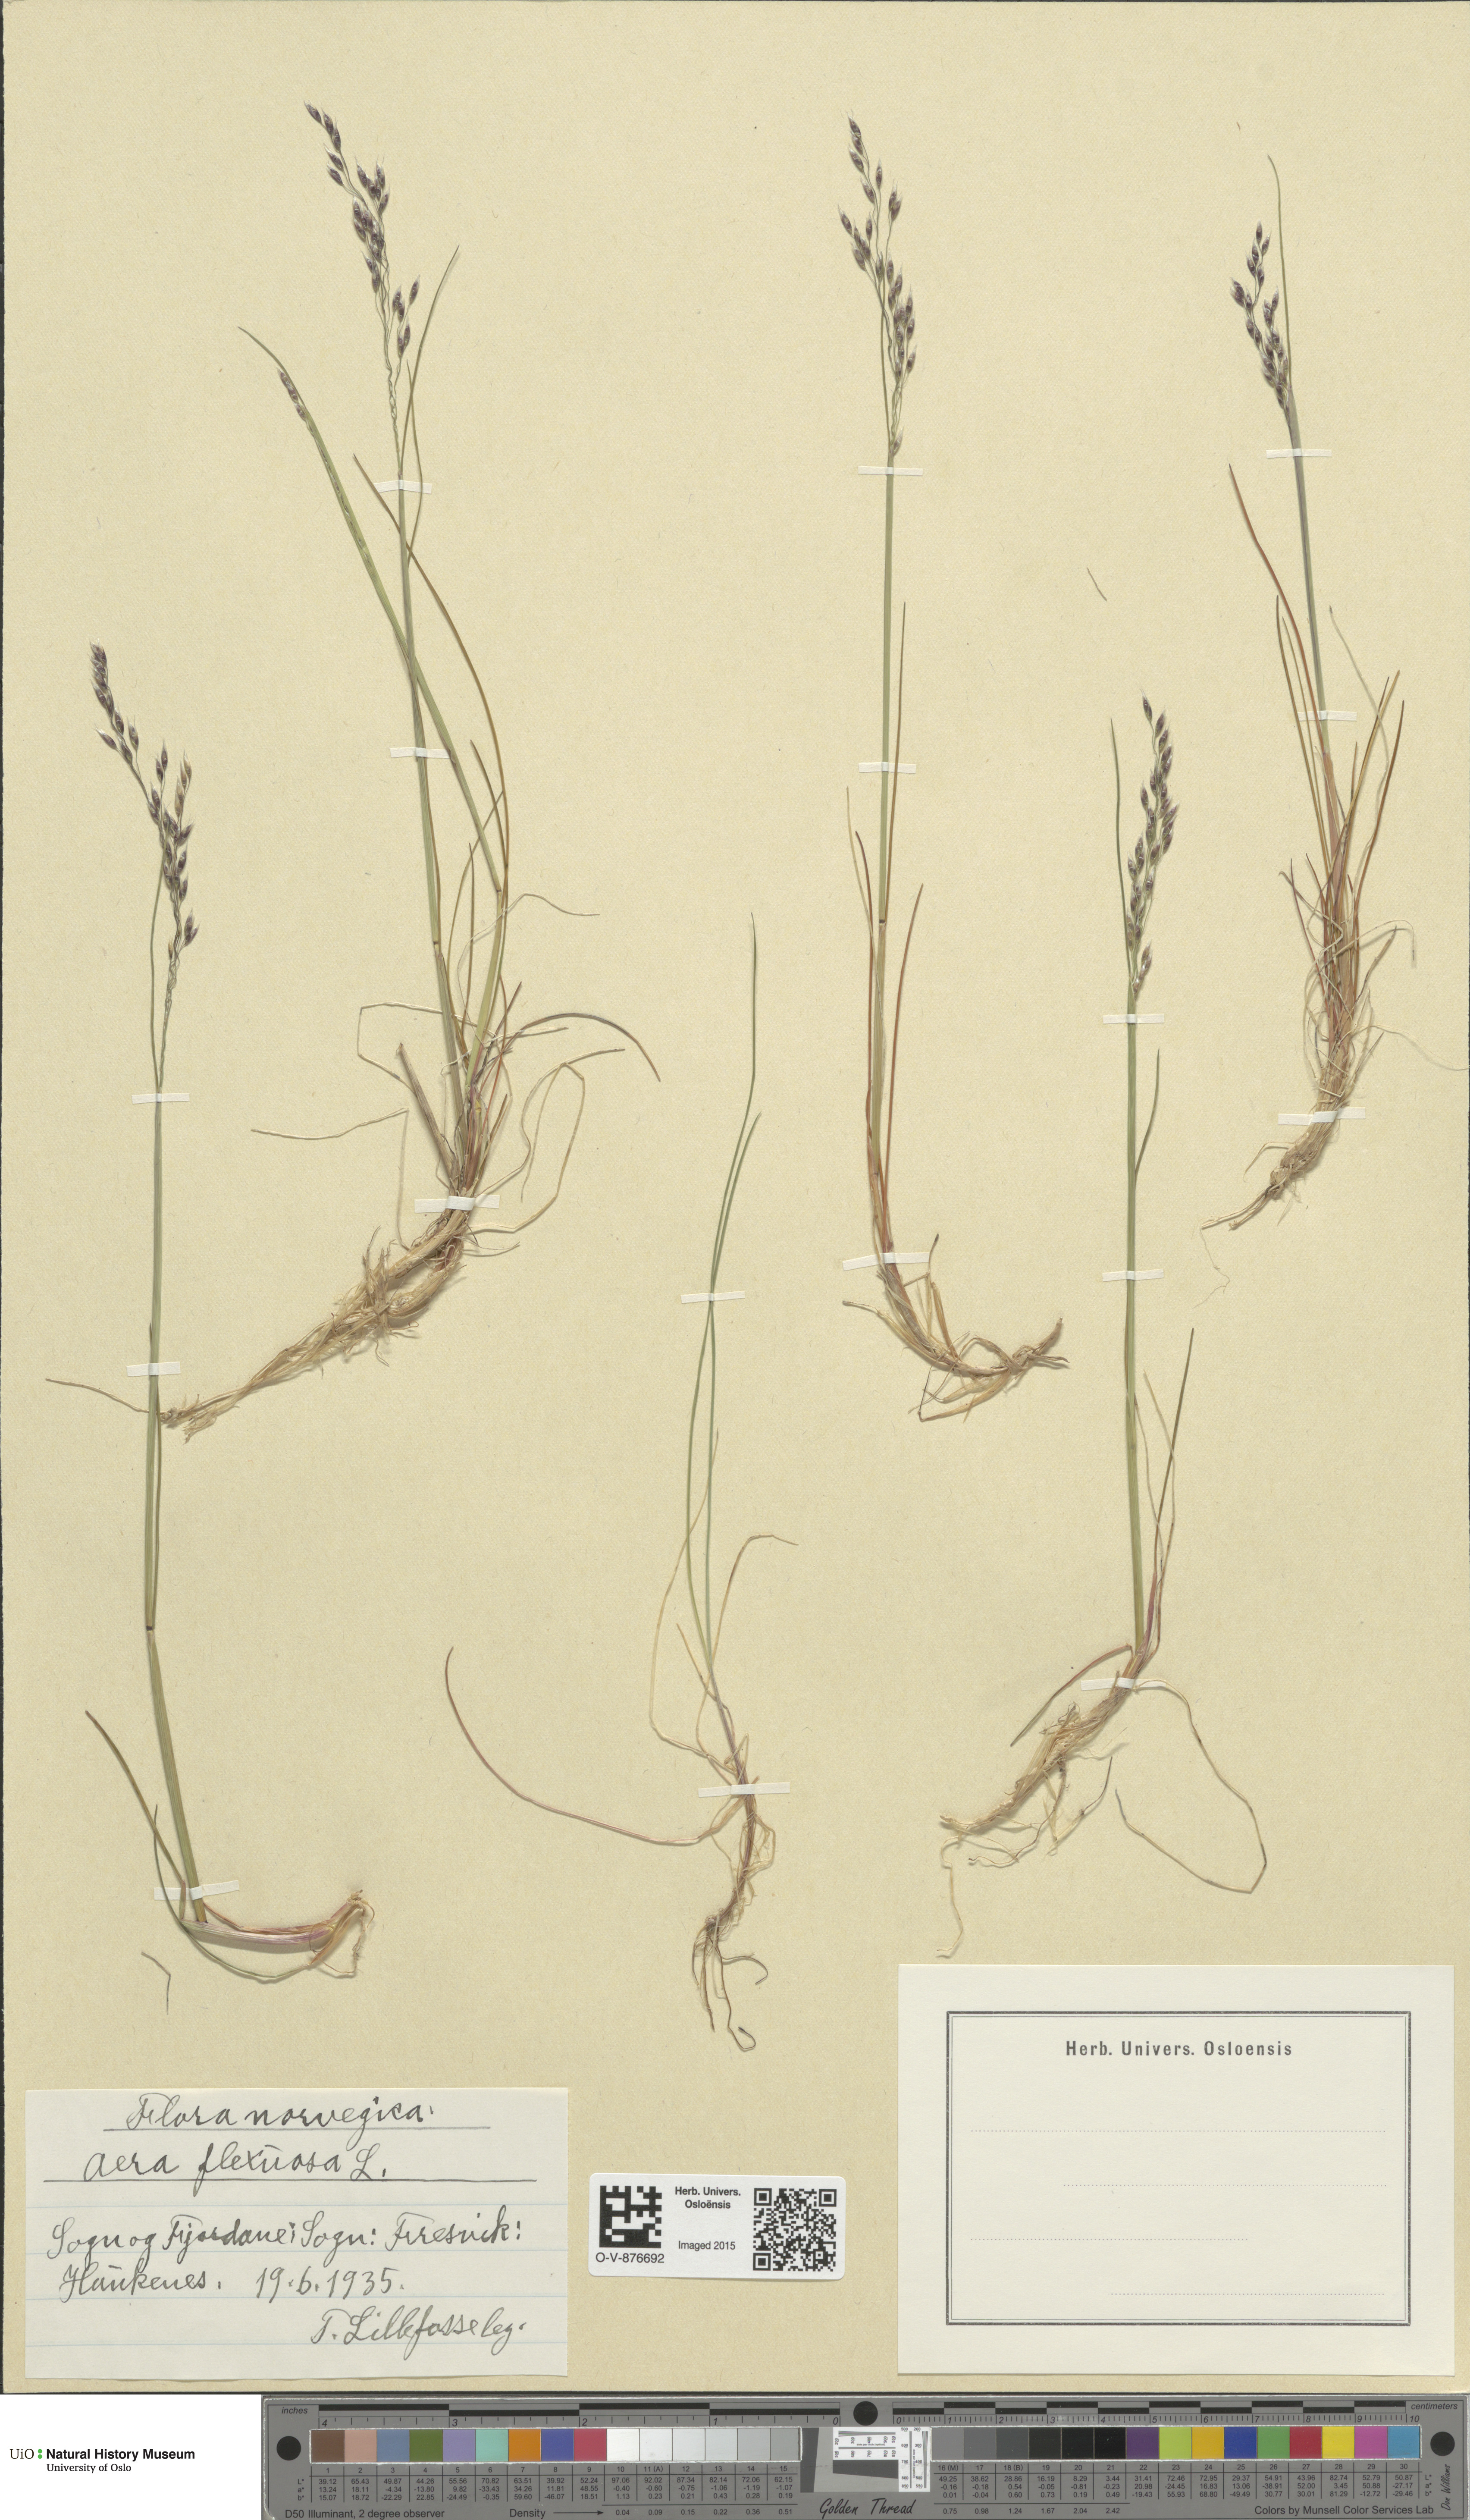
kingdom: Plantae
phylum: Tracheophyta
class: Liliopsida
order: Poales
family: Poaceae
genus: Avenella
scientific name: Avenella flexuosa
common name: Wavy hairgrass
